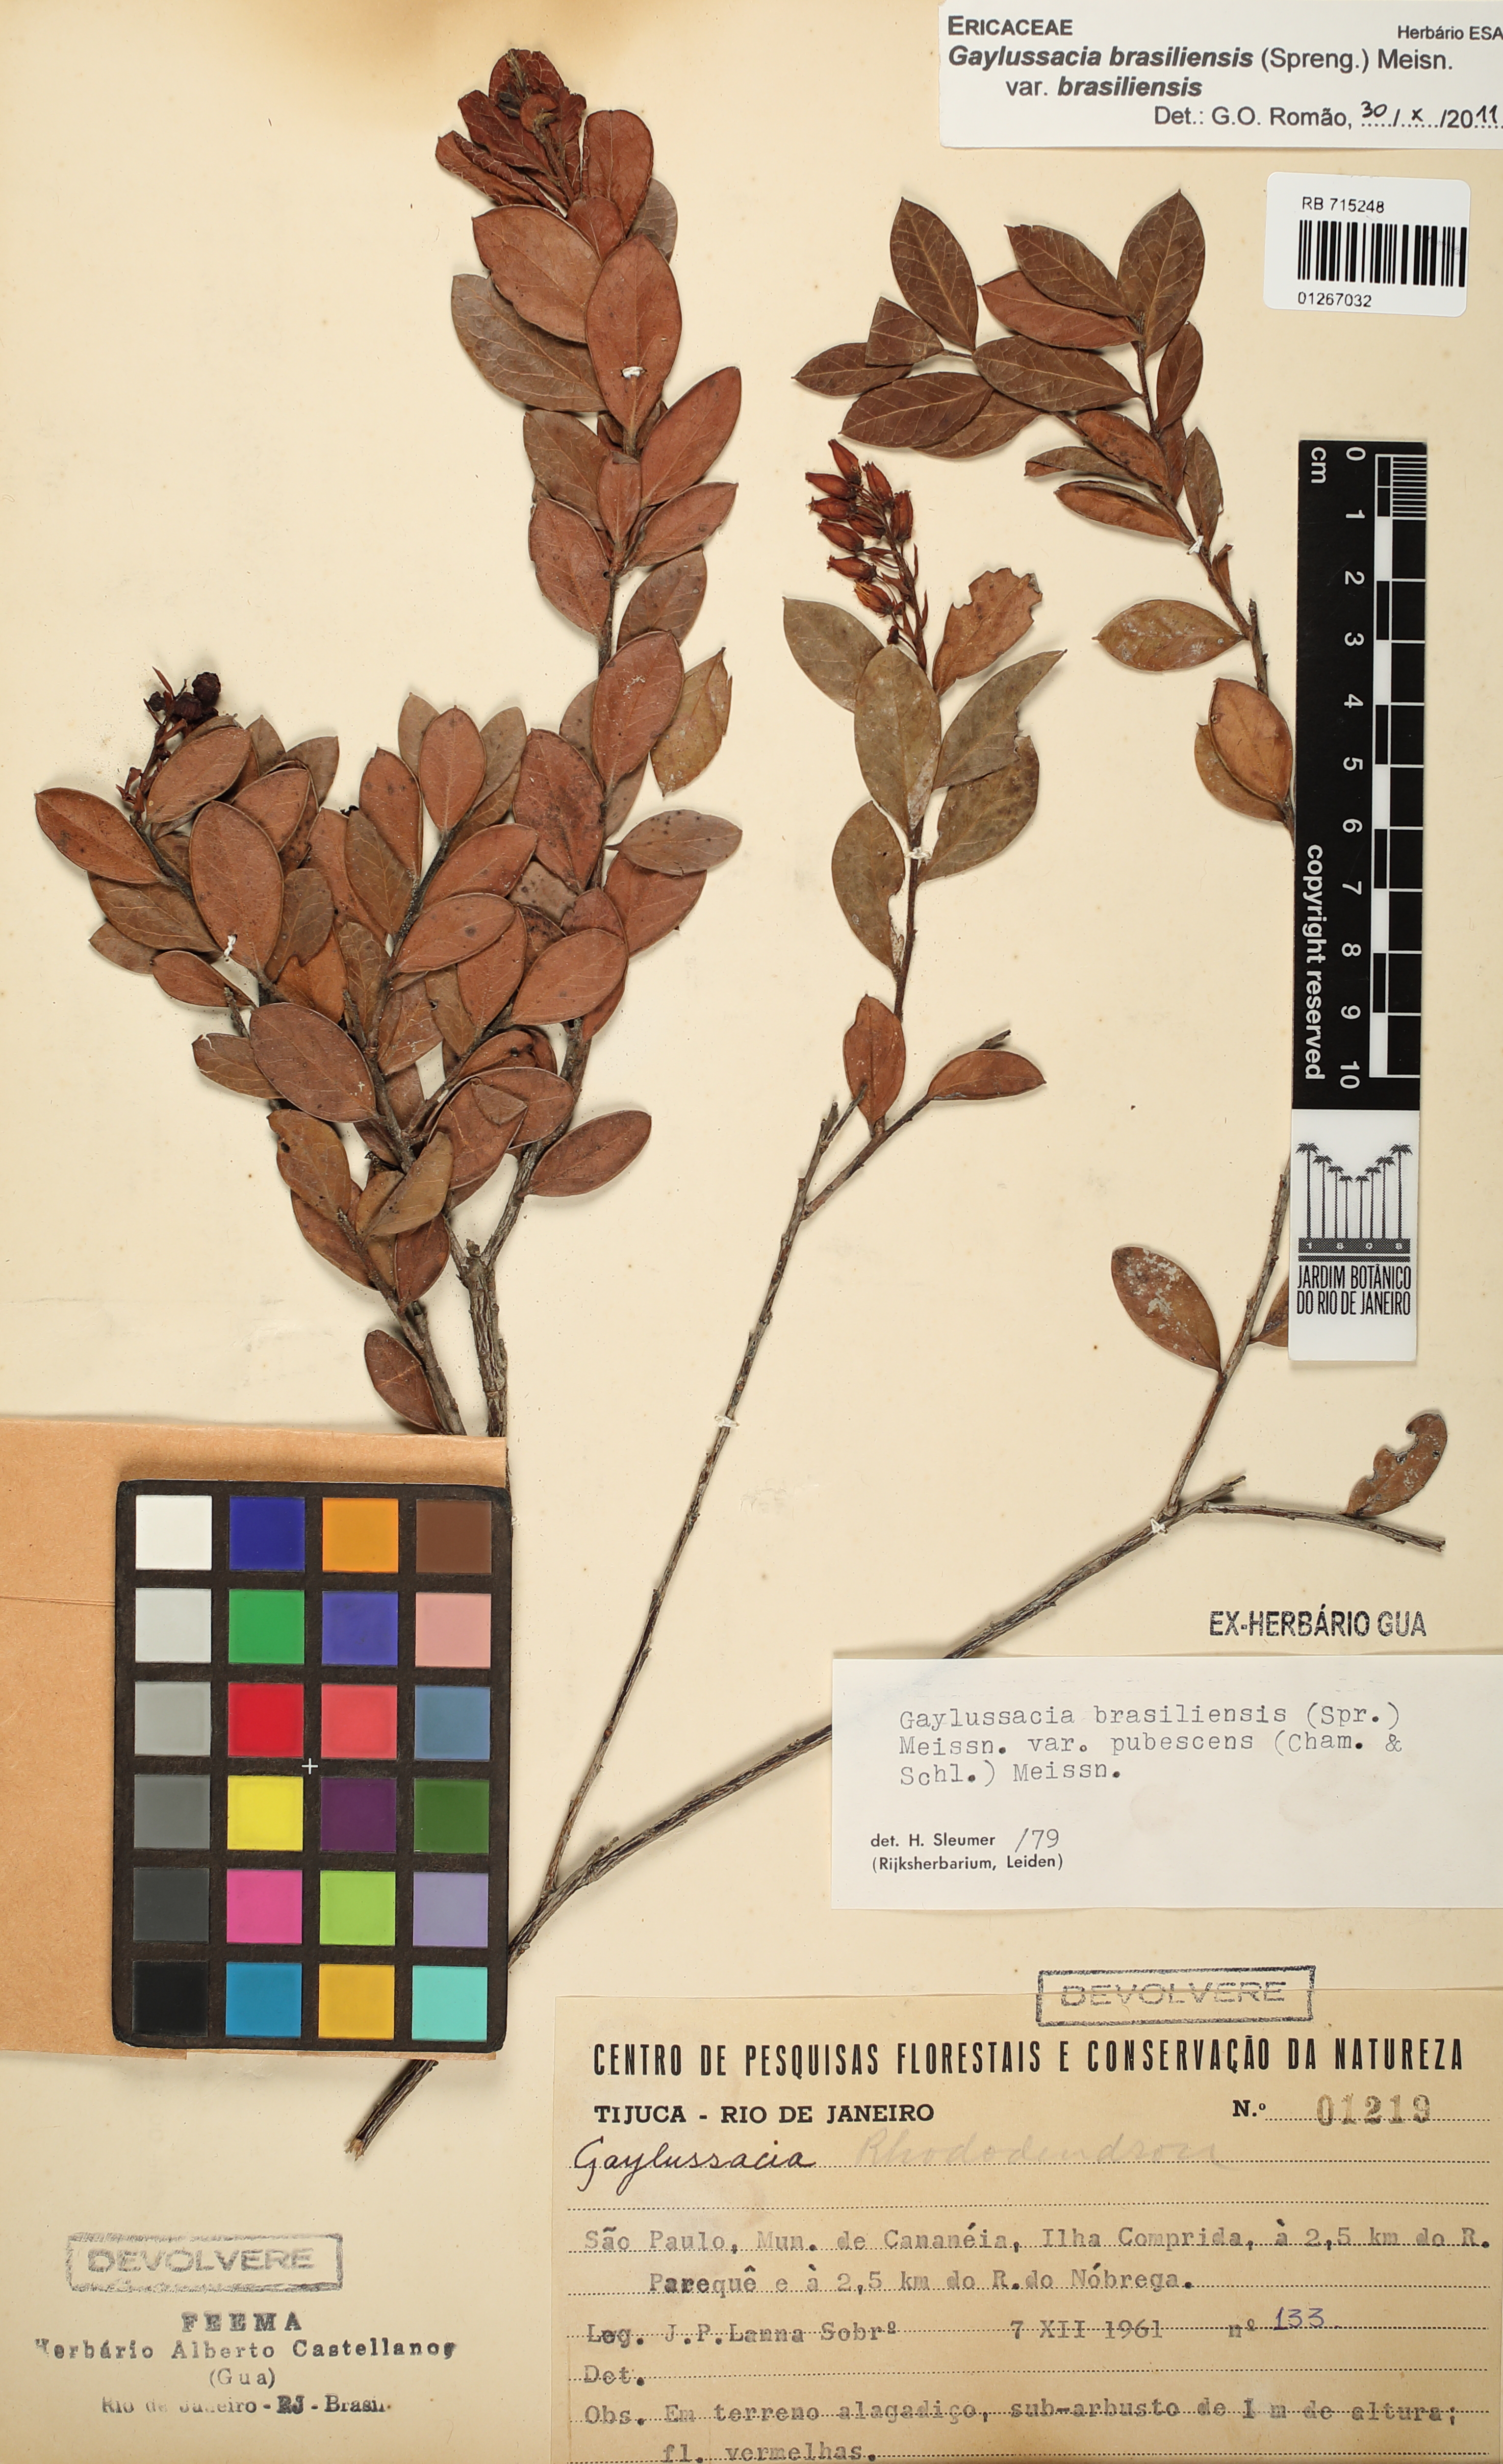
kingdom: Plantae
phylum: Tracheophyta
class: Magnoliopsida
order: Ericales
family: Ericaceae
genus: Gaylussacia
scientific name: Gaylussacia brasiliensis
